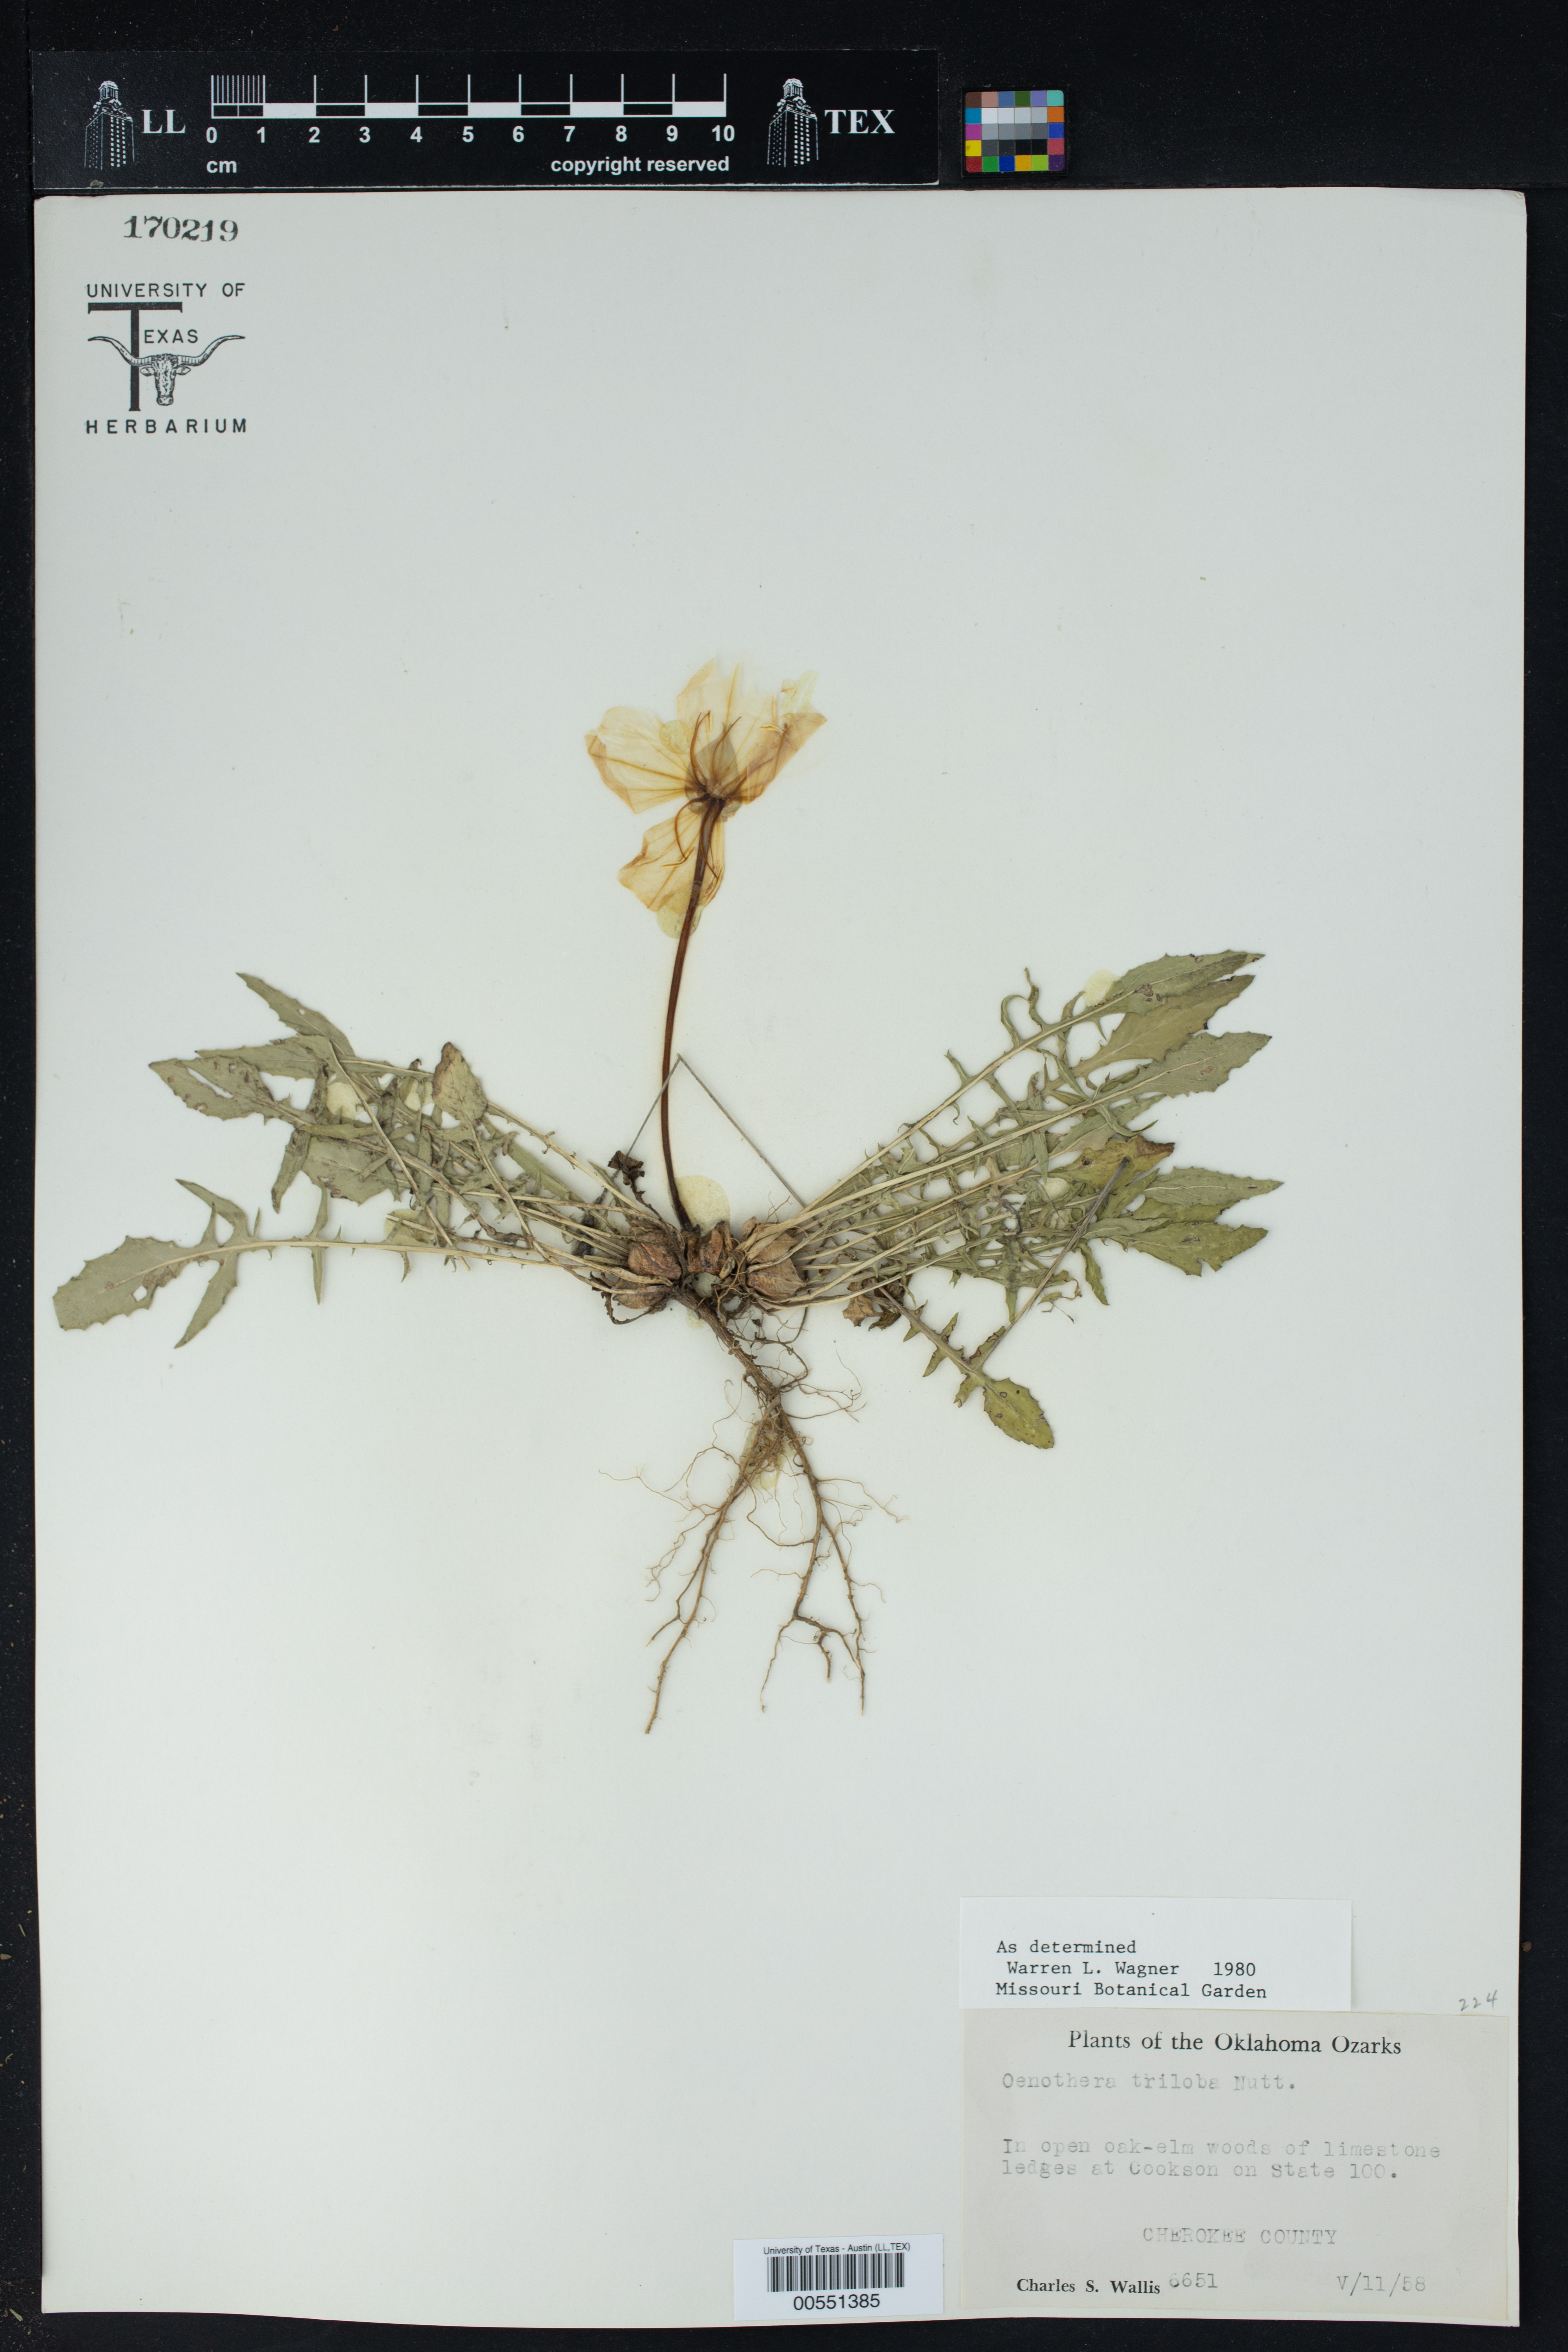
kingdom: Plantae
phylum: Tracheophyta
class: Magnoliopsida
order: Myrtales
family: Onagraceae
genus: Oenothera
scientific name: Oenothera triloba
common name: Sessile evening-primrose
